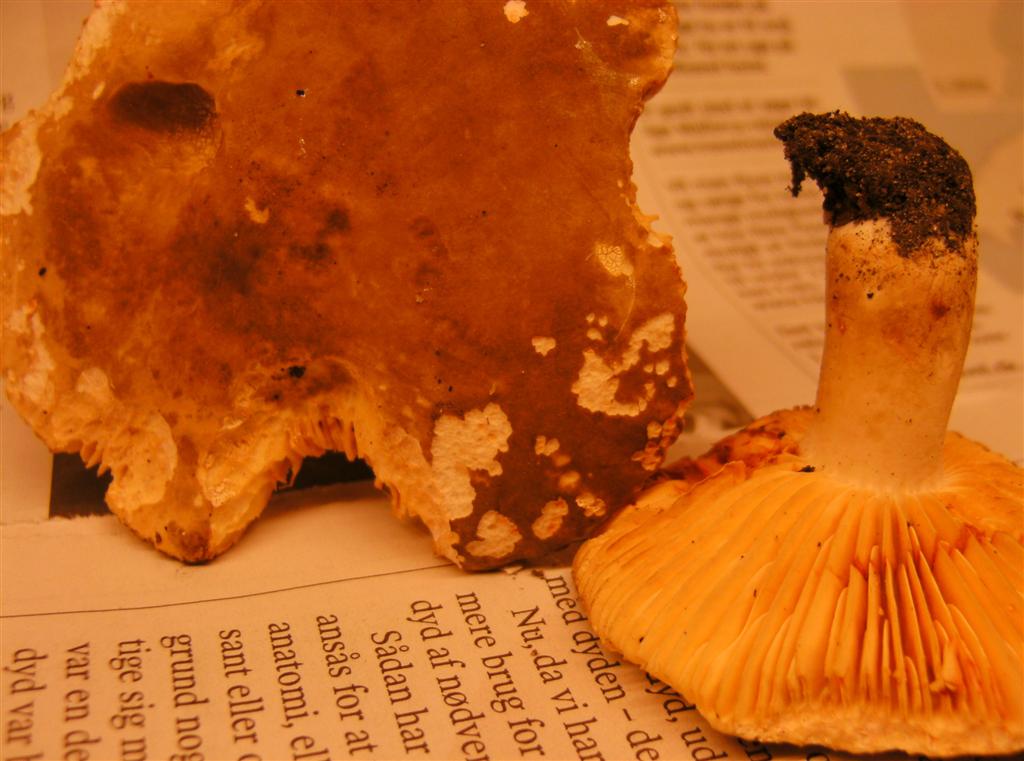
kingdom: Fungi
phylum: Basidiomycota
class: Agaricomycetes
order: Russulales
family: Russulaceae
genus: Lactarius
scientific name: Lactarius ruginosus
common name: gråbrun mælkehat
